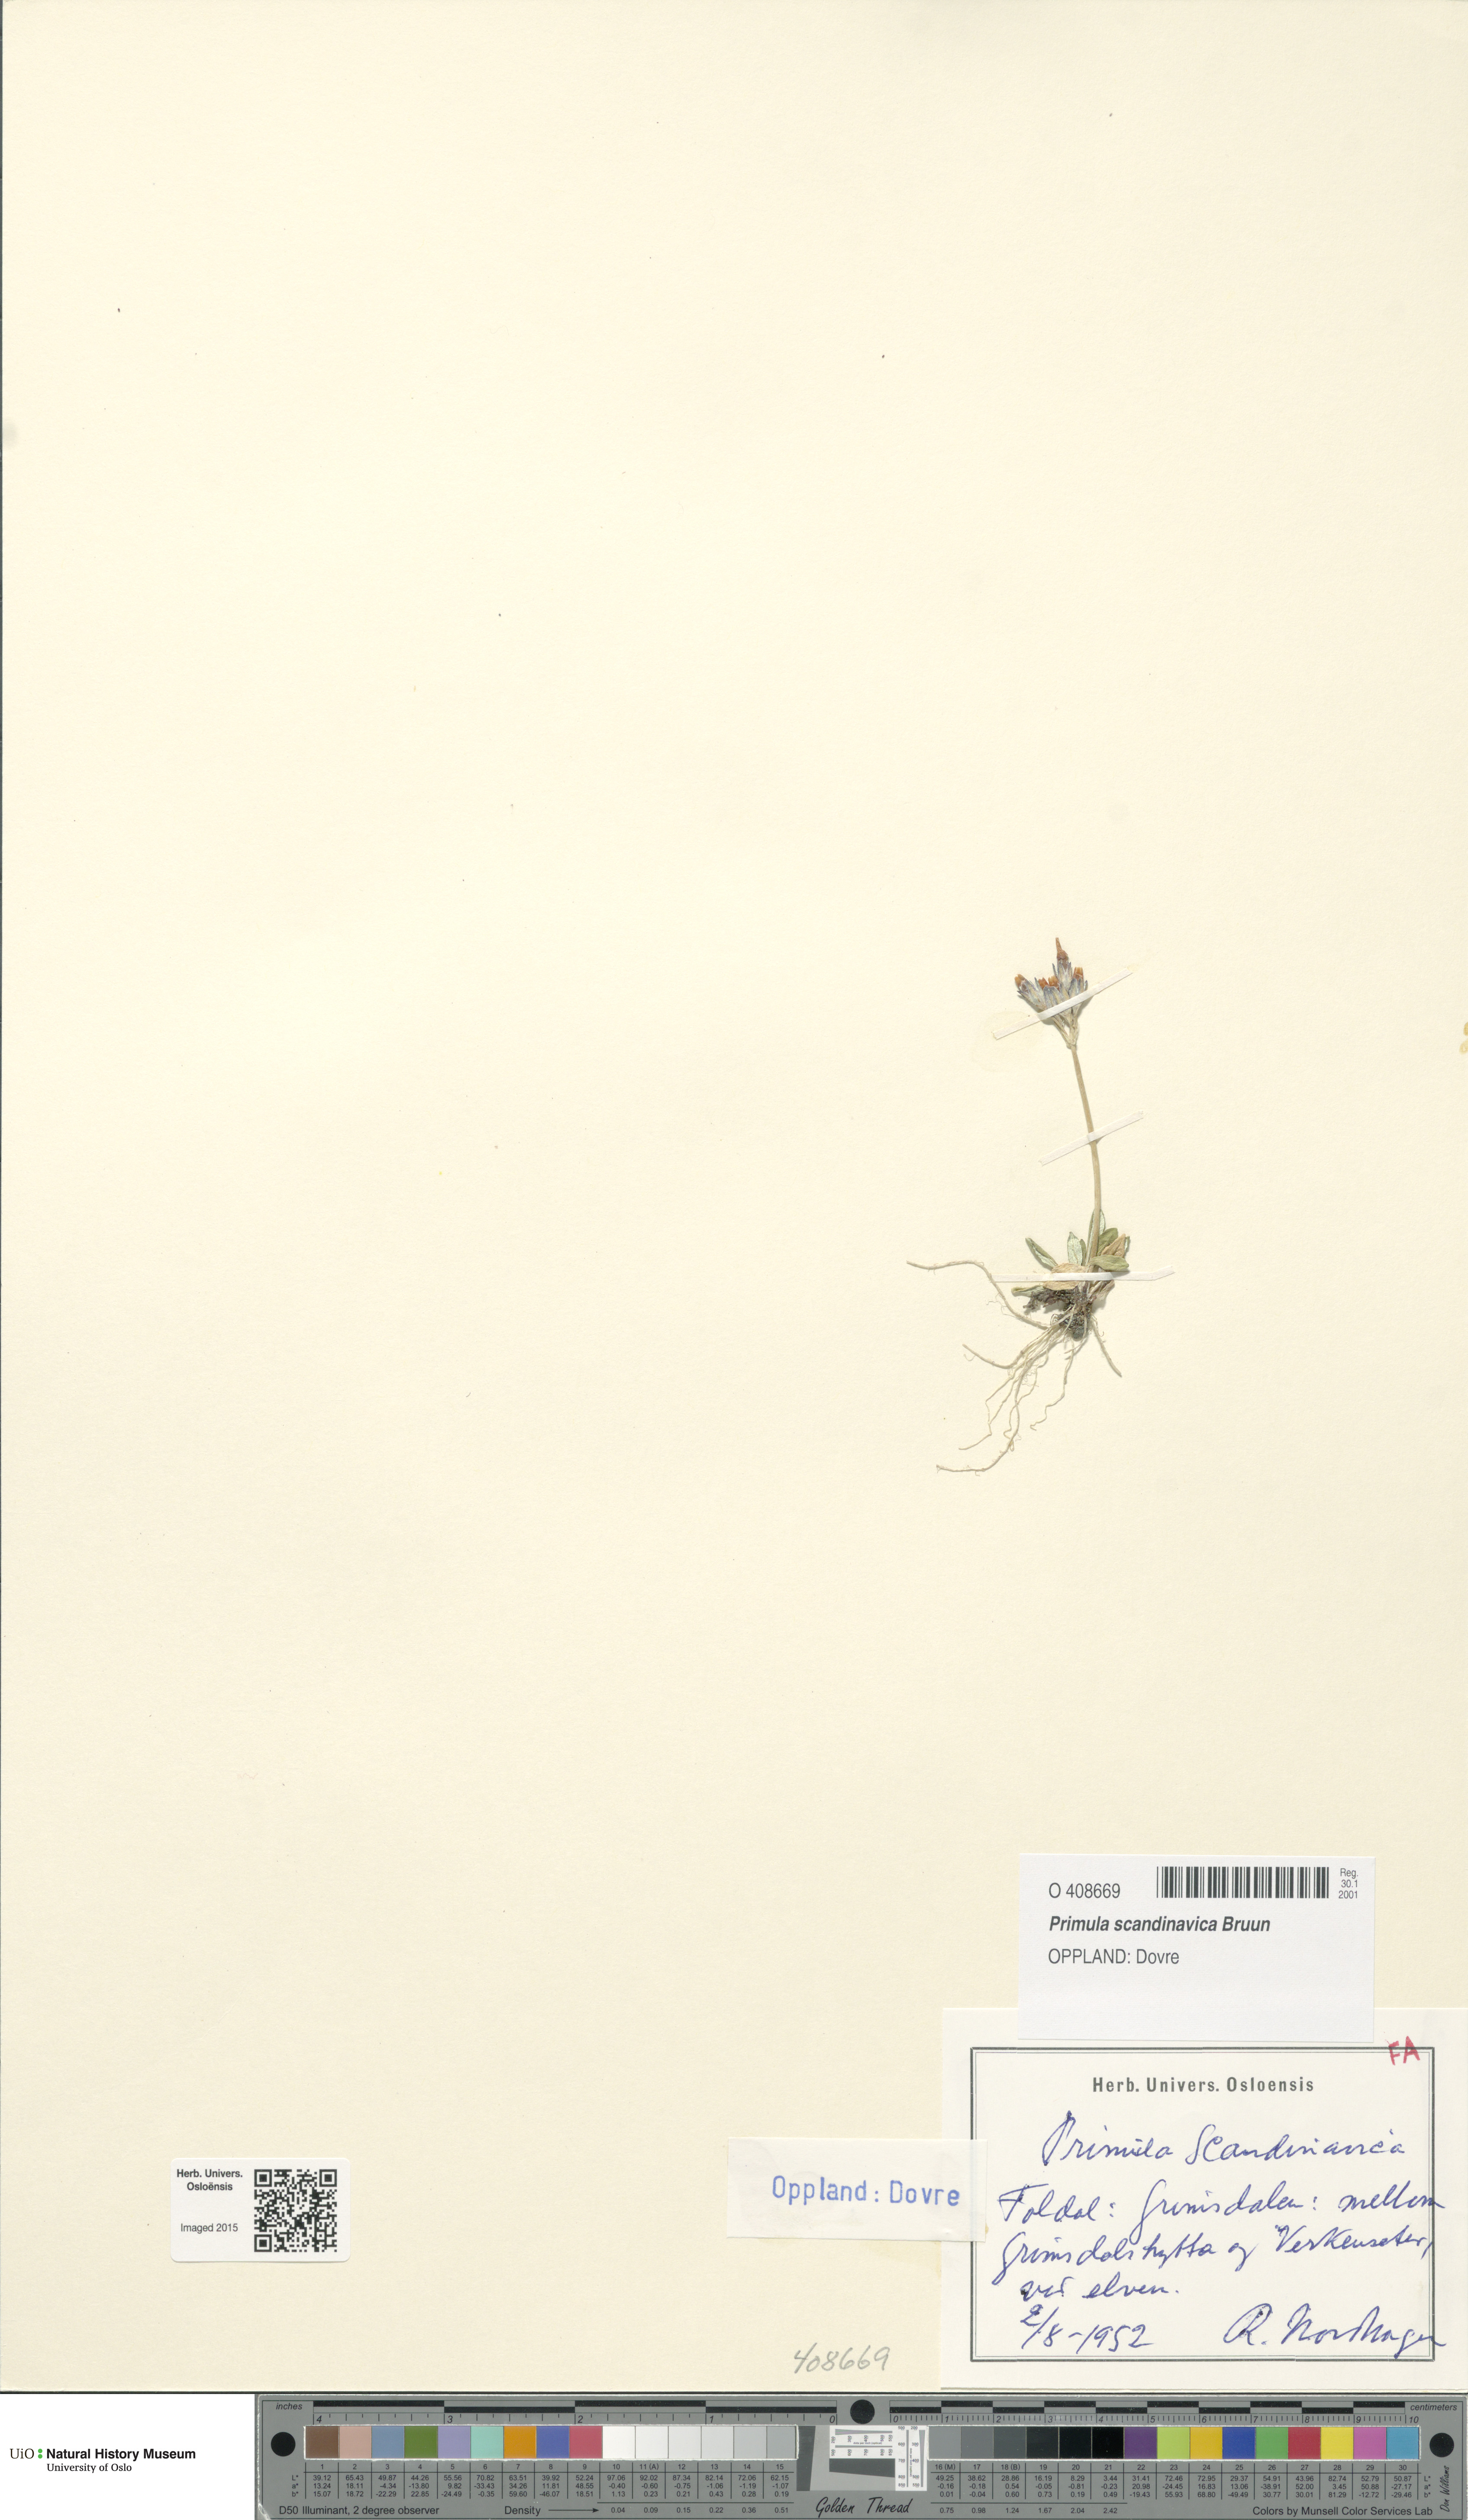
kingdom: Plantae
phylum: Tracheophyta
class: Magnoliopsida
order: Ericales
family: Primulaceae
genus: Primula
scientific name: Primula scandinavica
